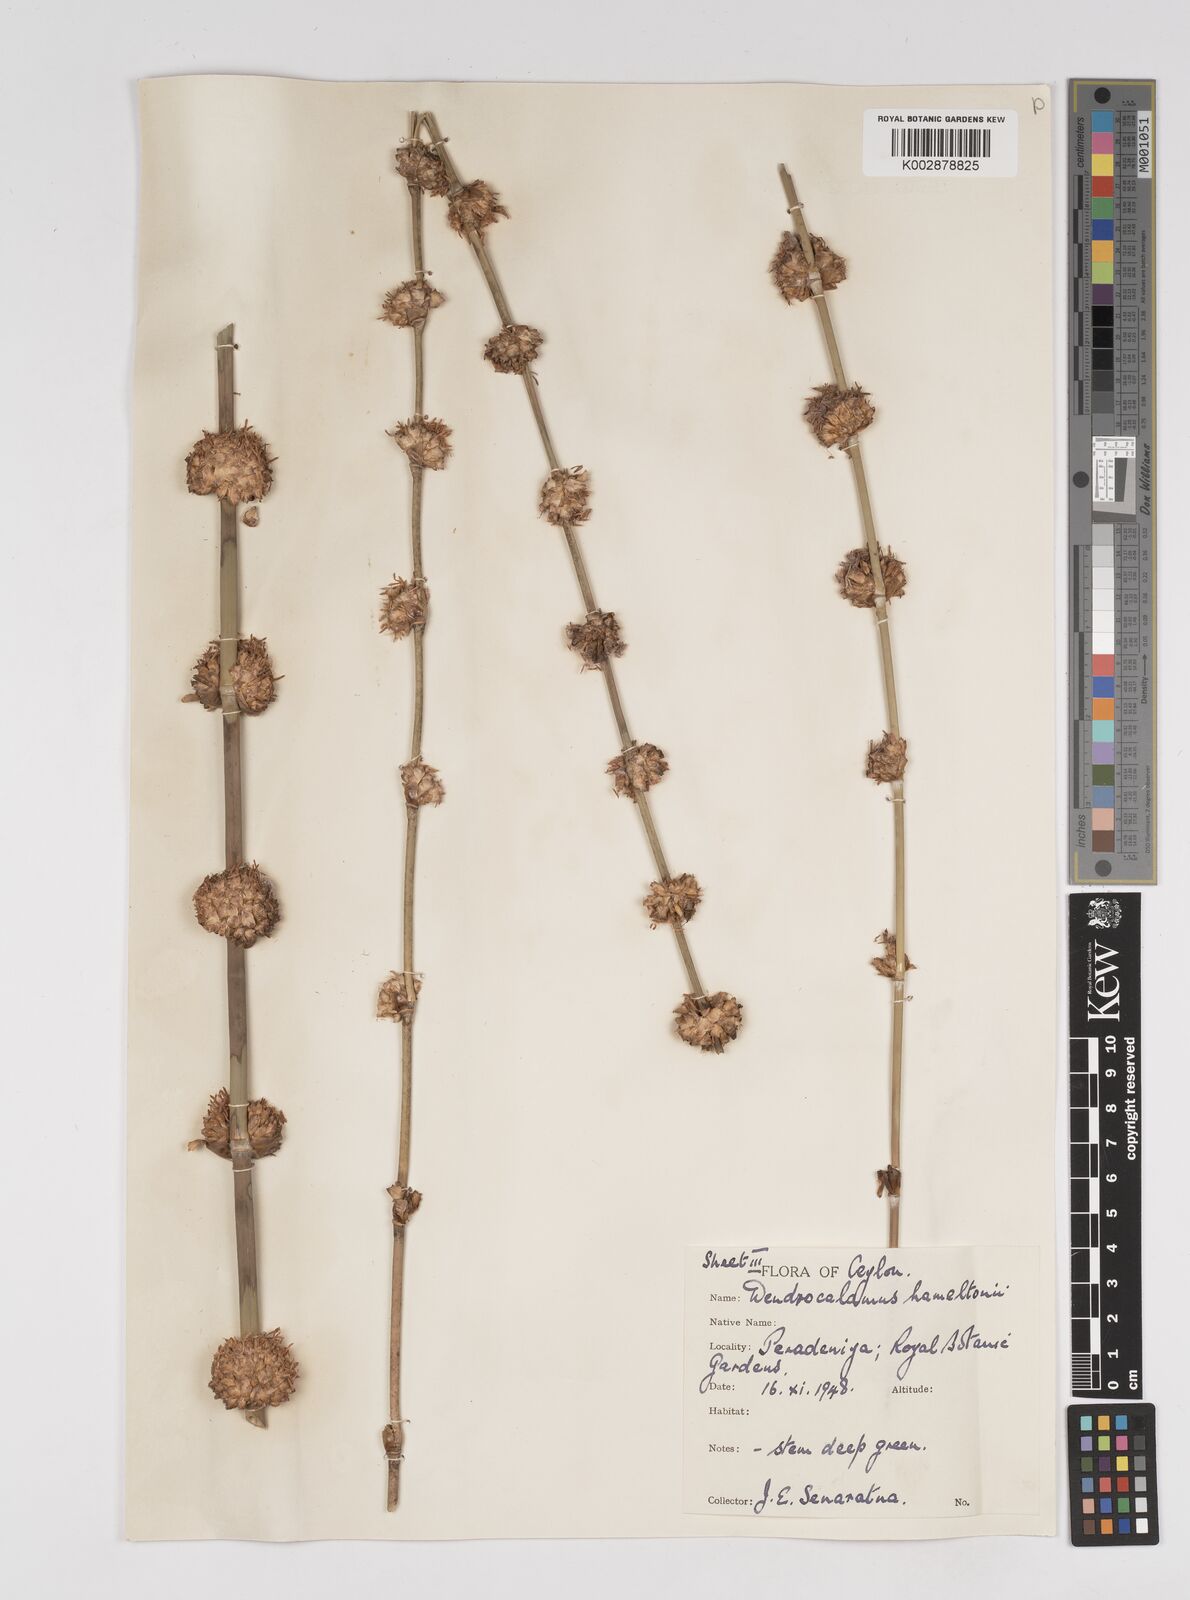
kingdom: Plantae
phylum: Tracheophyta
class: Liliopsida
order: Poales
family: Poaceae
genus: Dendrocalamus
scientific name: Dendrocalamus hamiltonii
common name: Tama bamboo
